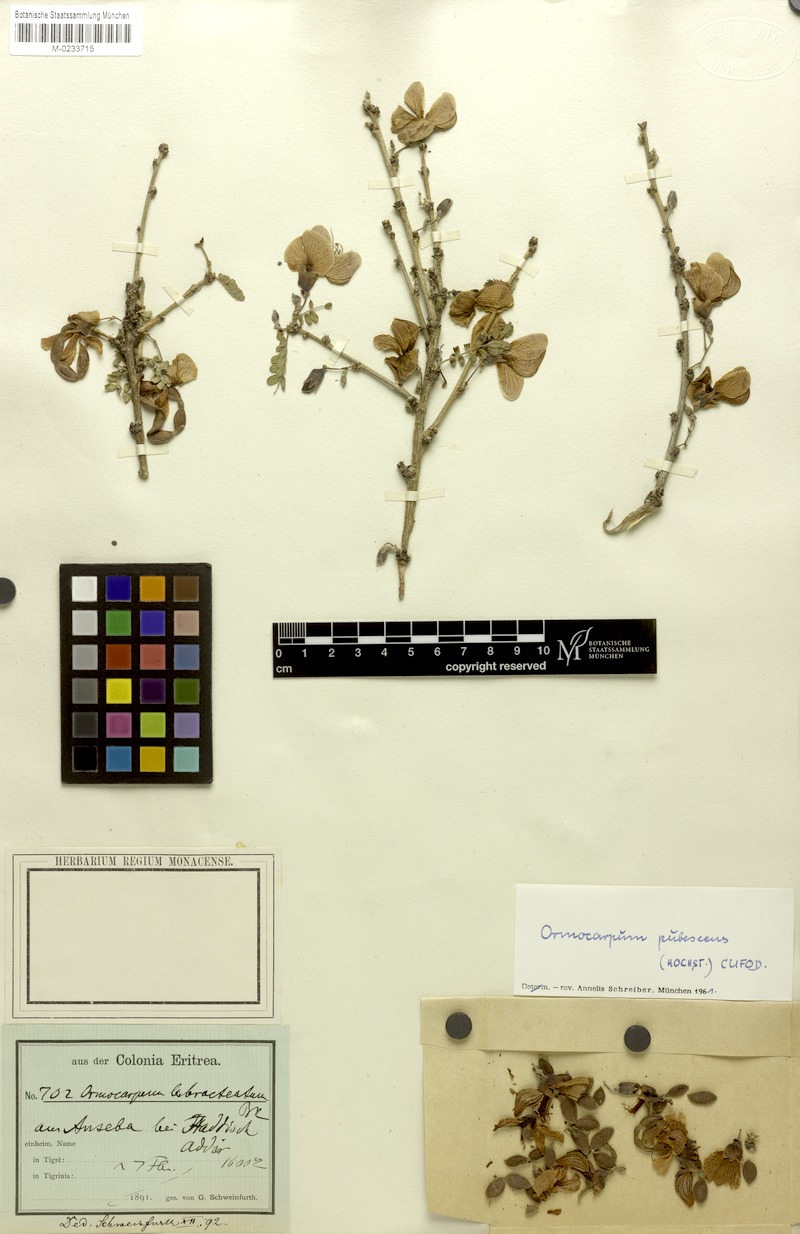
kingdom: Plantae
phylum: Tracheophyta
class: Magnoliopsida
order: Fabales
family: Fabaceae
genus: Ormocarpum
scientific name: Ormocarpum pubescens
